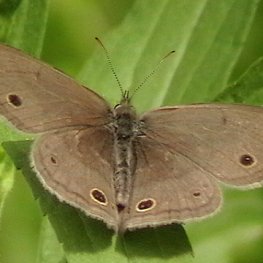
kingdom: Animalia
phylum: Arthropoda
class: Insecta
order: Lepidoptera
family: Nymphalidae
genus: Euptychia
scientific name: Euptychia cymela
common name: Little Wood Satyr
